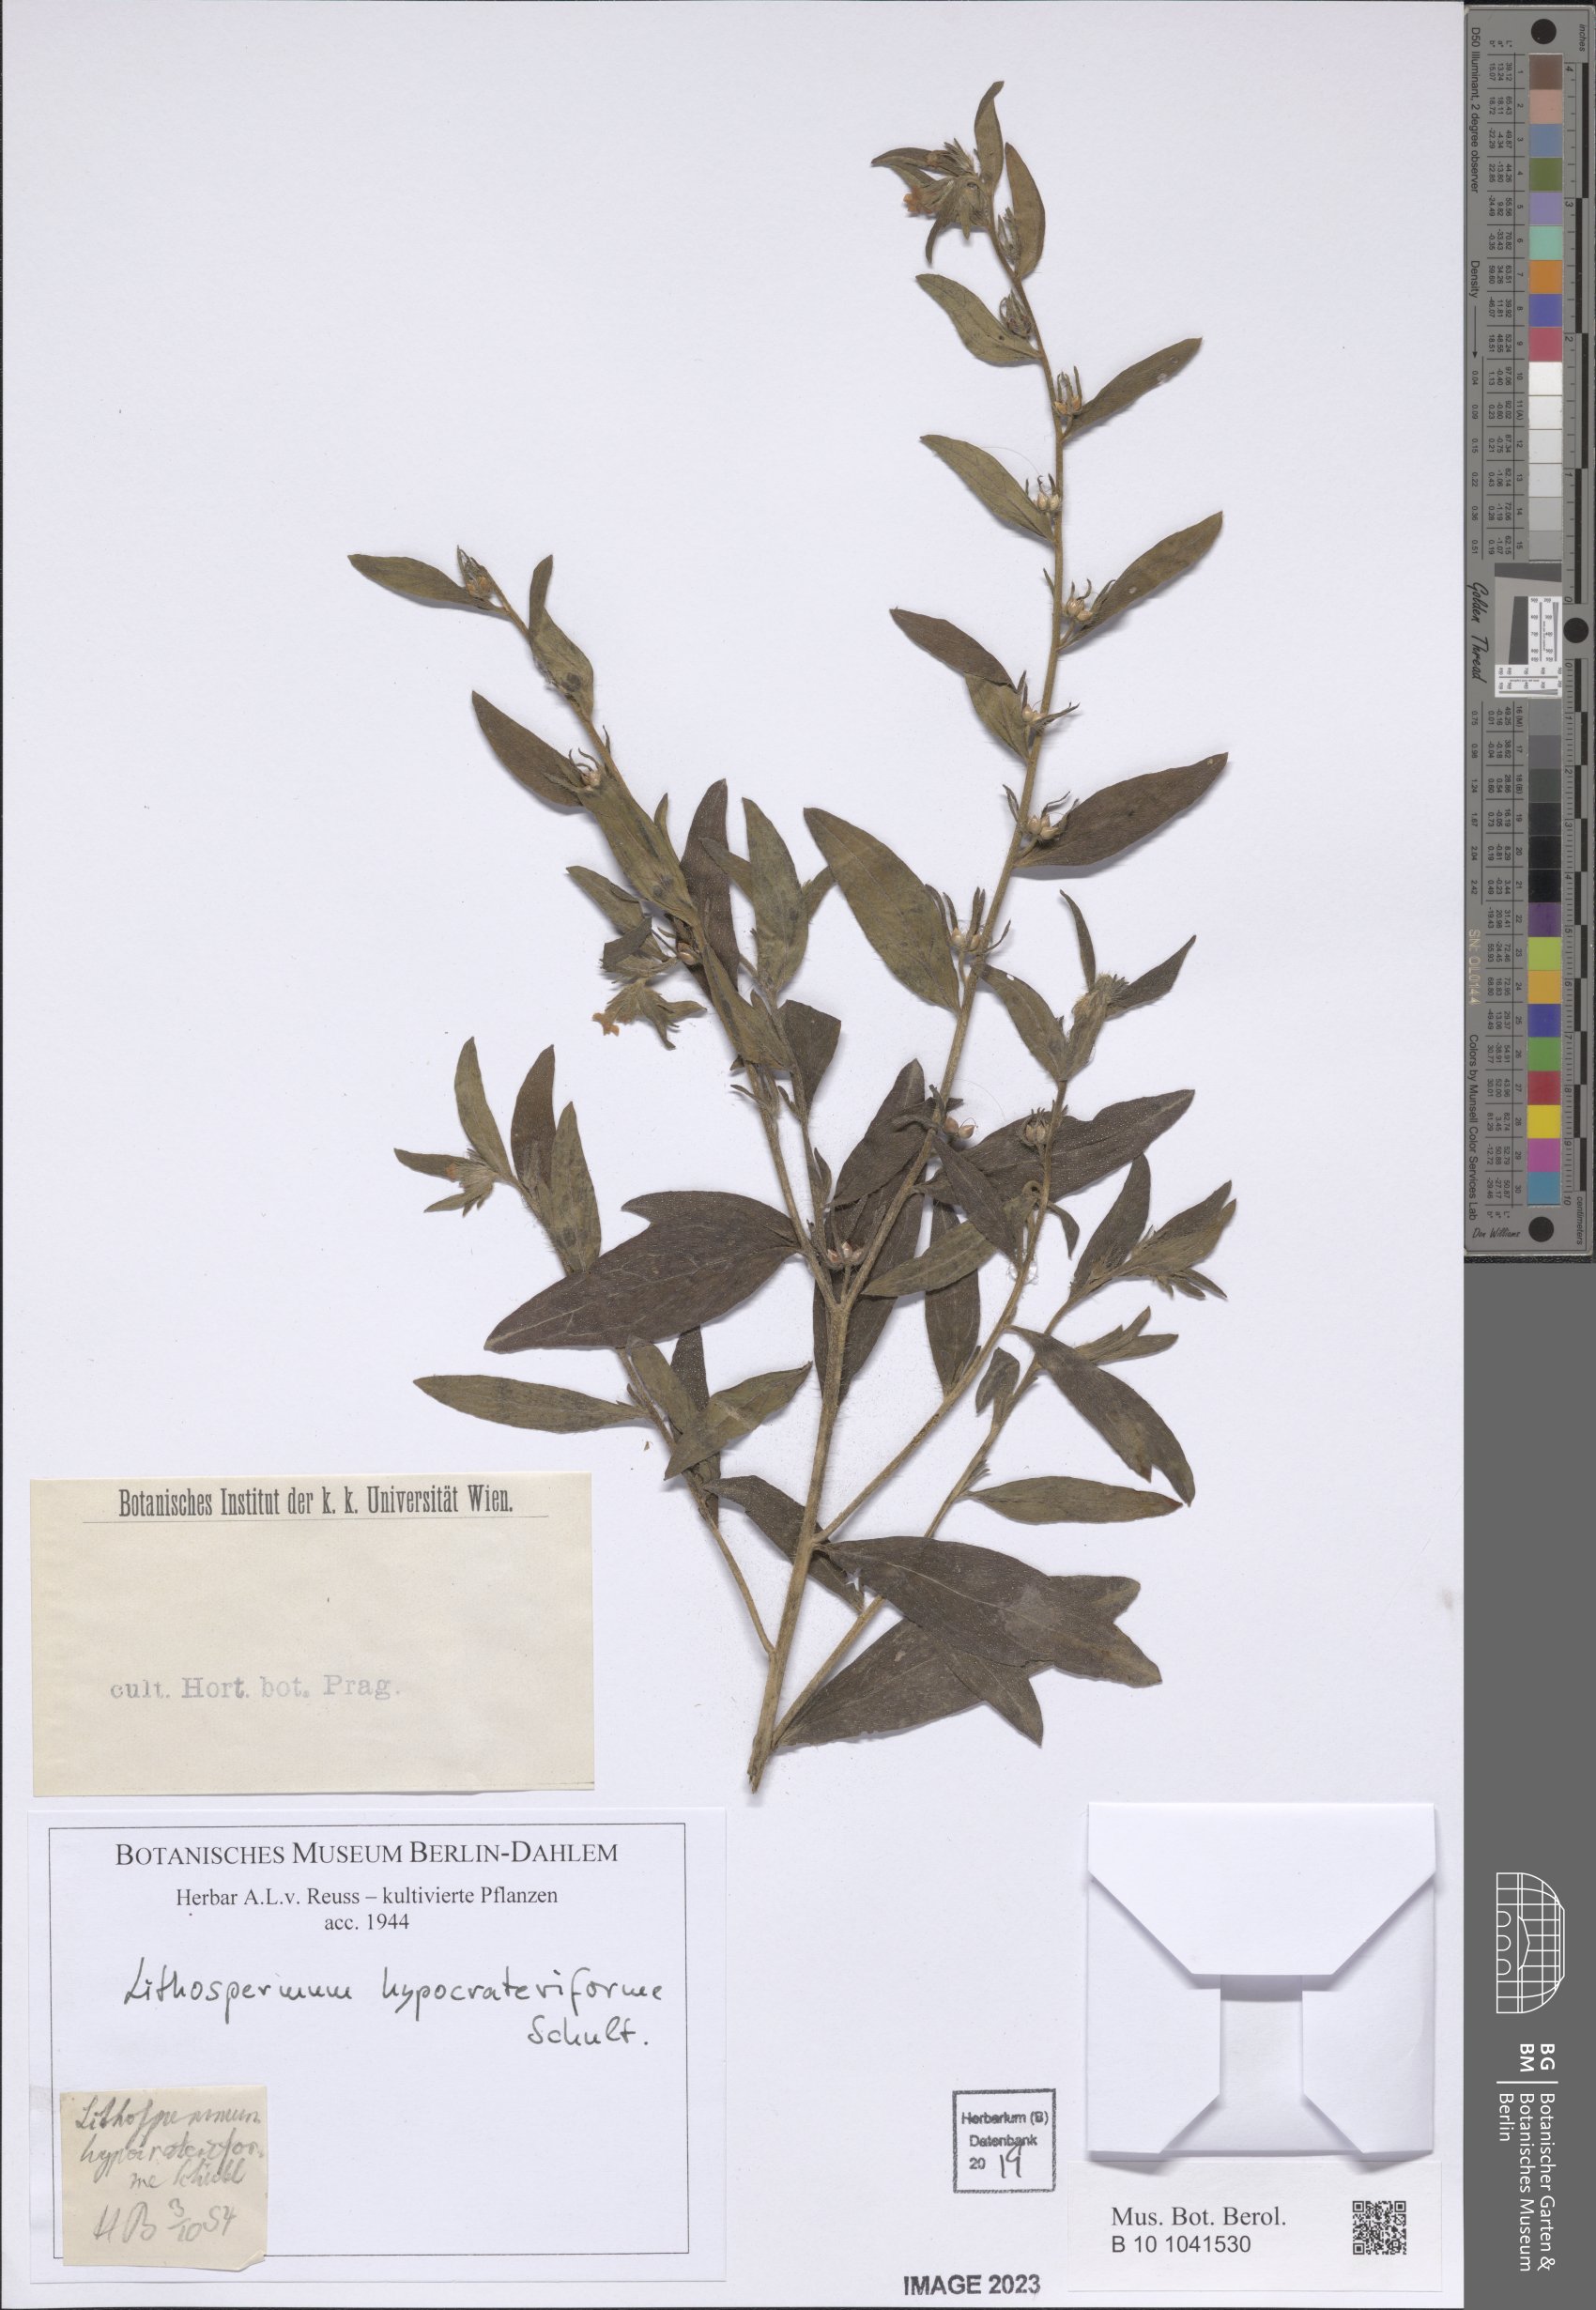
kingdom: Plantae
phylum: Tracheophyta
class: Magnoliopsida
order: Boraginales
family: Boraginaceae
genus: Lithospermum
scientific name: Lithospermum hypocrateriforme
